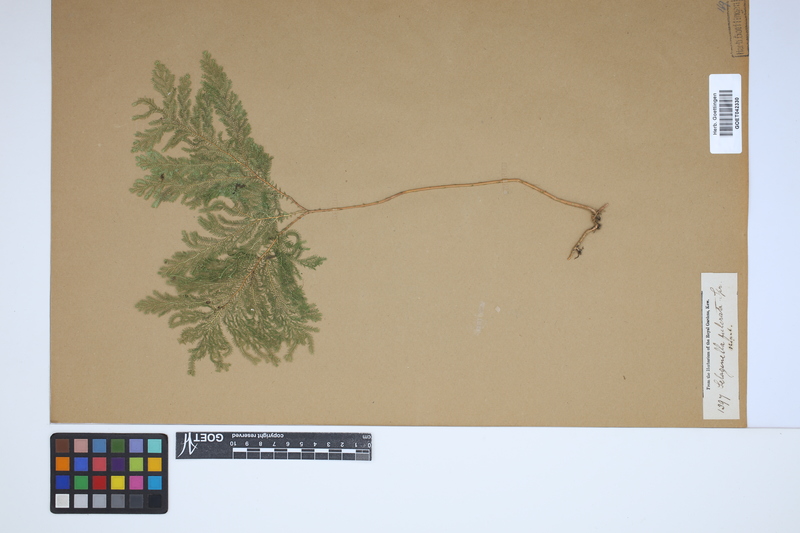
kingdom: Plantae
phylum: Tracheophyta
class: Lycopodiopsida
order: Selaginellales
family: Selaginellaceae
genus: Selaginella
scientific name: Selaginella fulcrata
